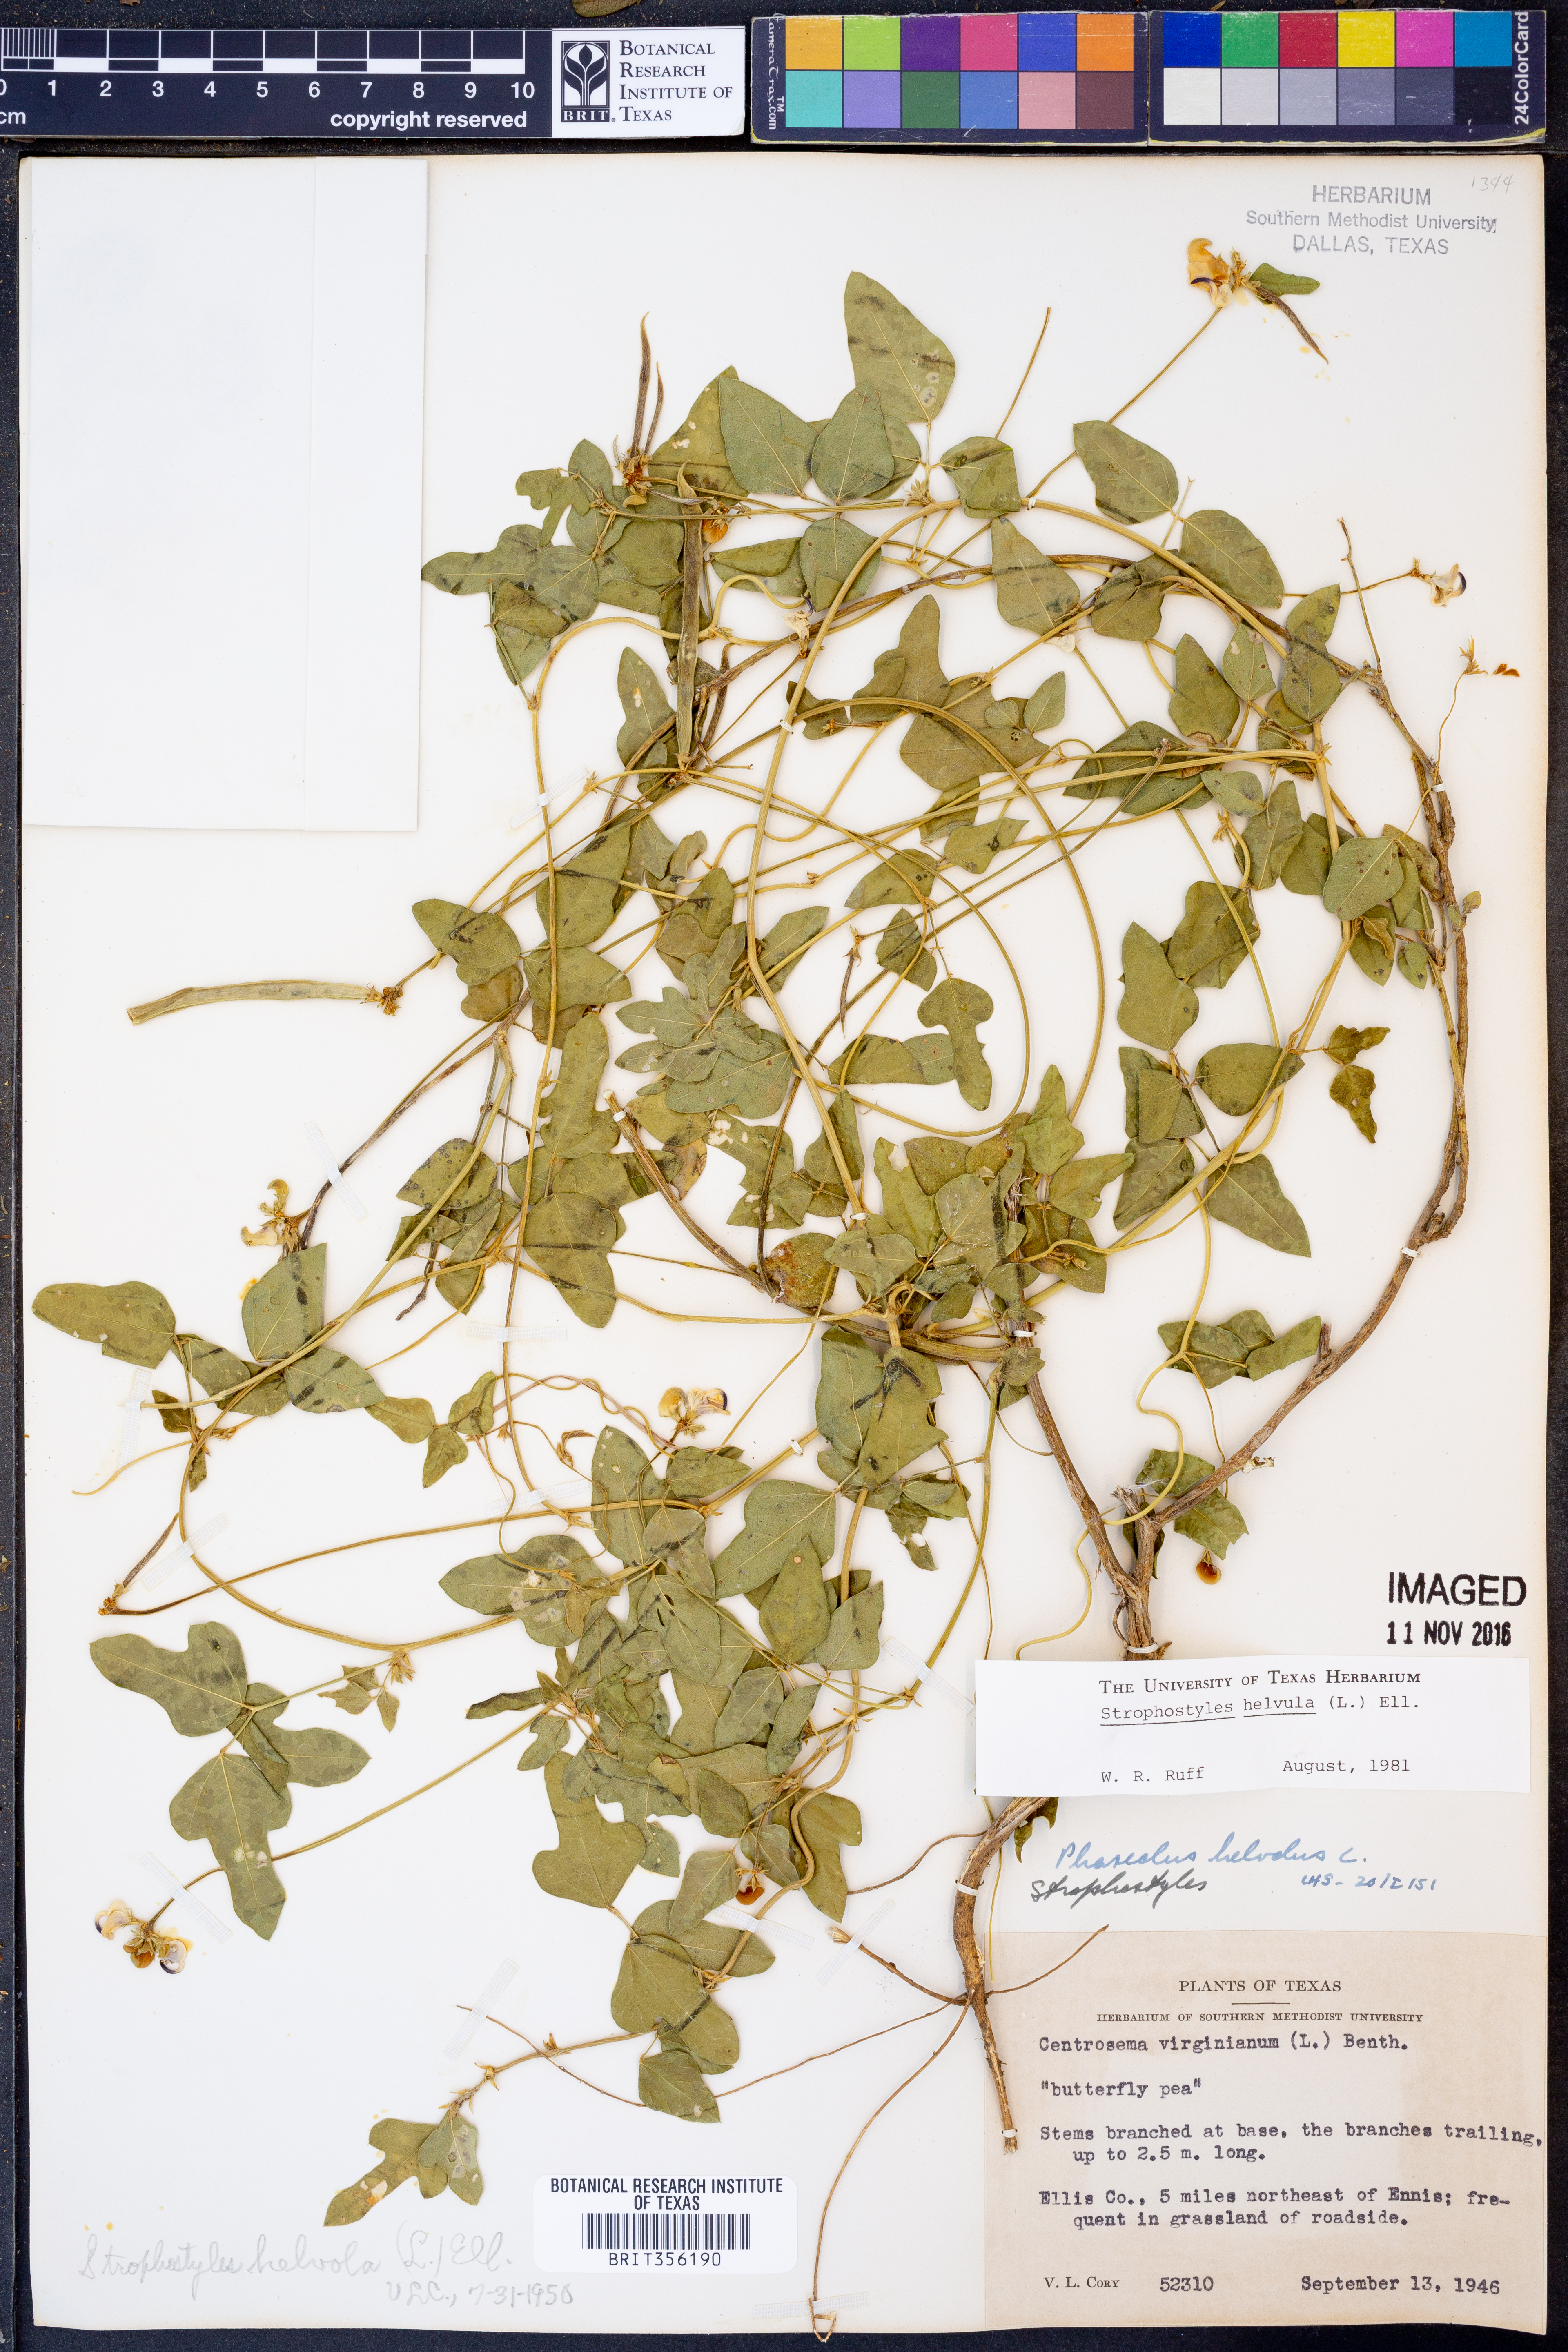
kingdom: Plantae
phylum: Tracheophyta
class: Magnoliopsida
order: Fabales
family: Fabaceae
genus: Strophostyles
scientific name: Strophostyles helvula
